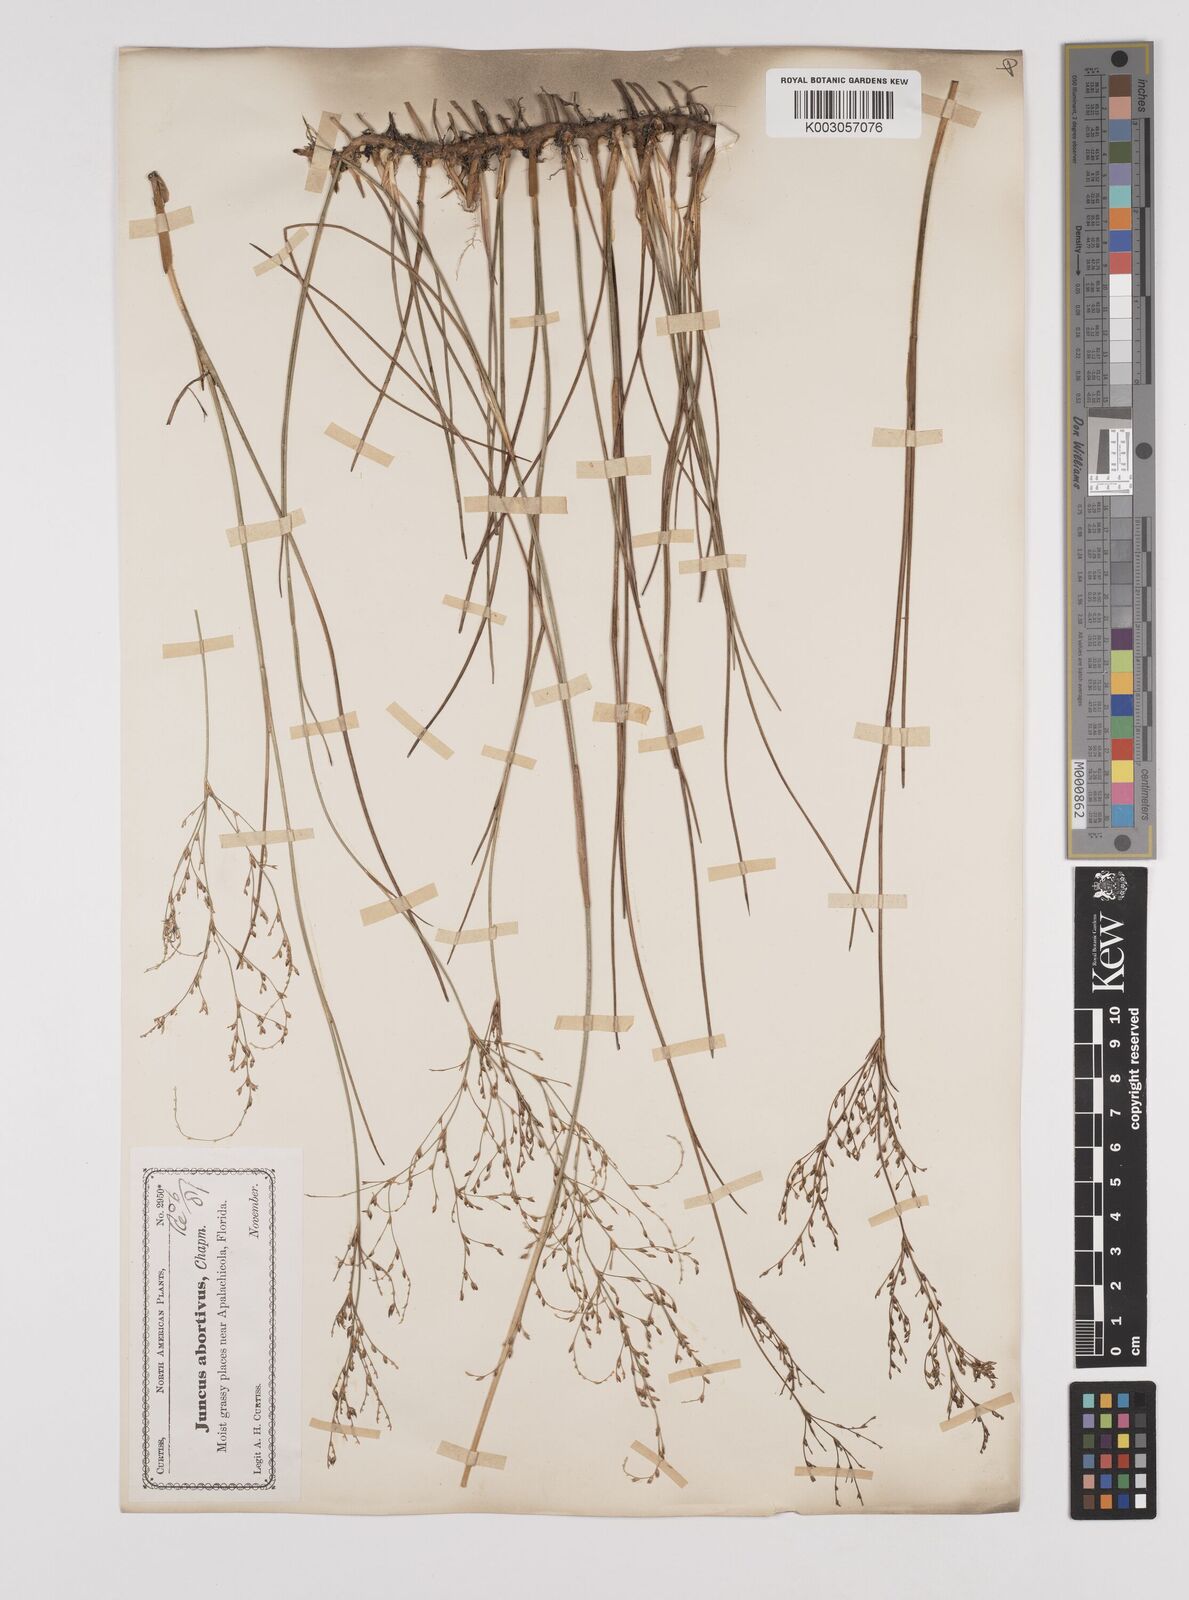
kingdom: Plantae
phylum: Tracheophyta
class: Liliopsida
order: Poales
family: Juncaceae
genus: Juncus
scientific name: Juncus pelocarpus
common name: Brown-fruited rush
